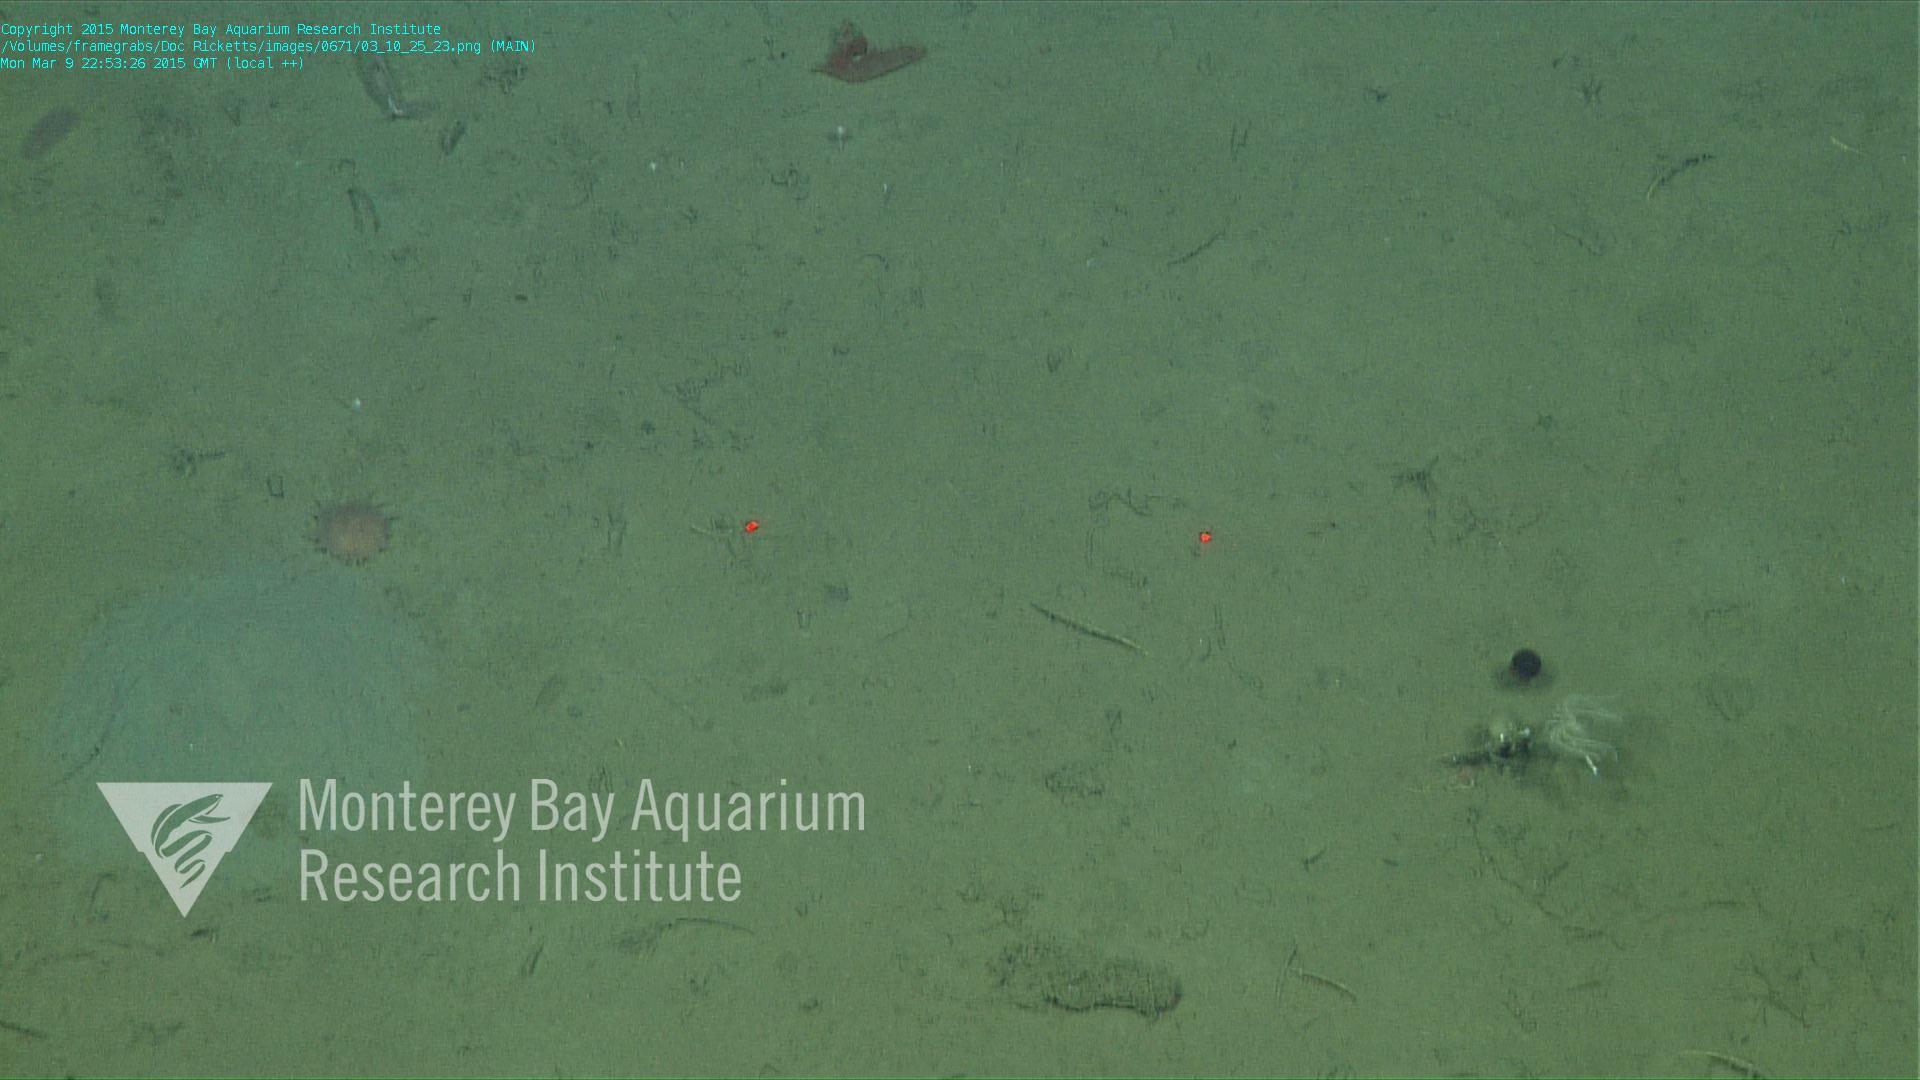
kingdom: Animalia
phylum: Cnidaria
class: Anthozoa
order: Scleractinia
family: Fungiacyathidae
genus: Fungiacyathus
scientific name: Fungiacyathus marenzelleri
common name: Marenzeller's stony coral
